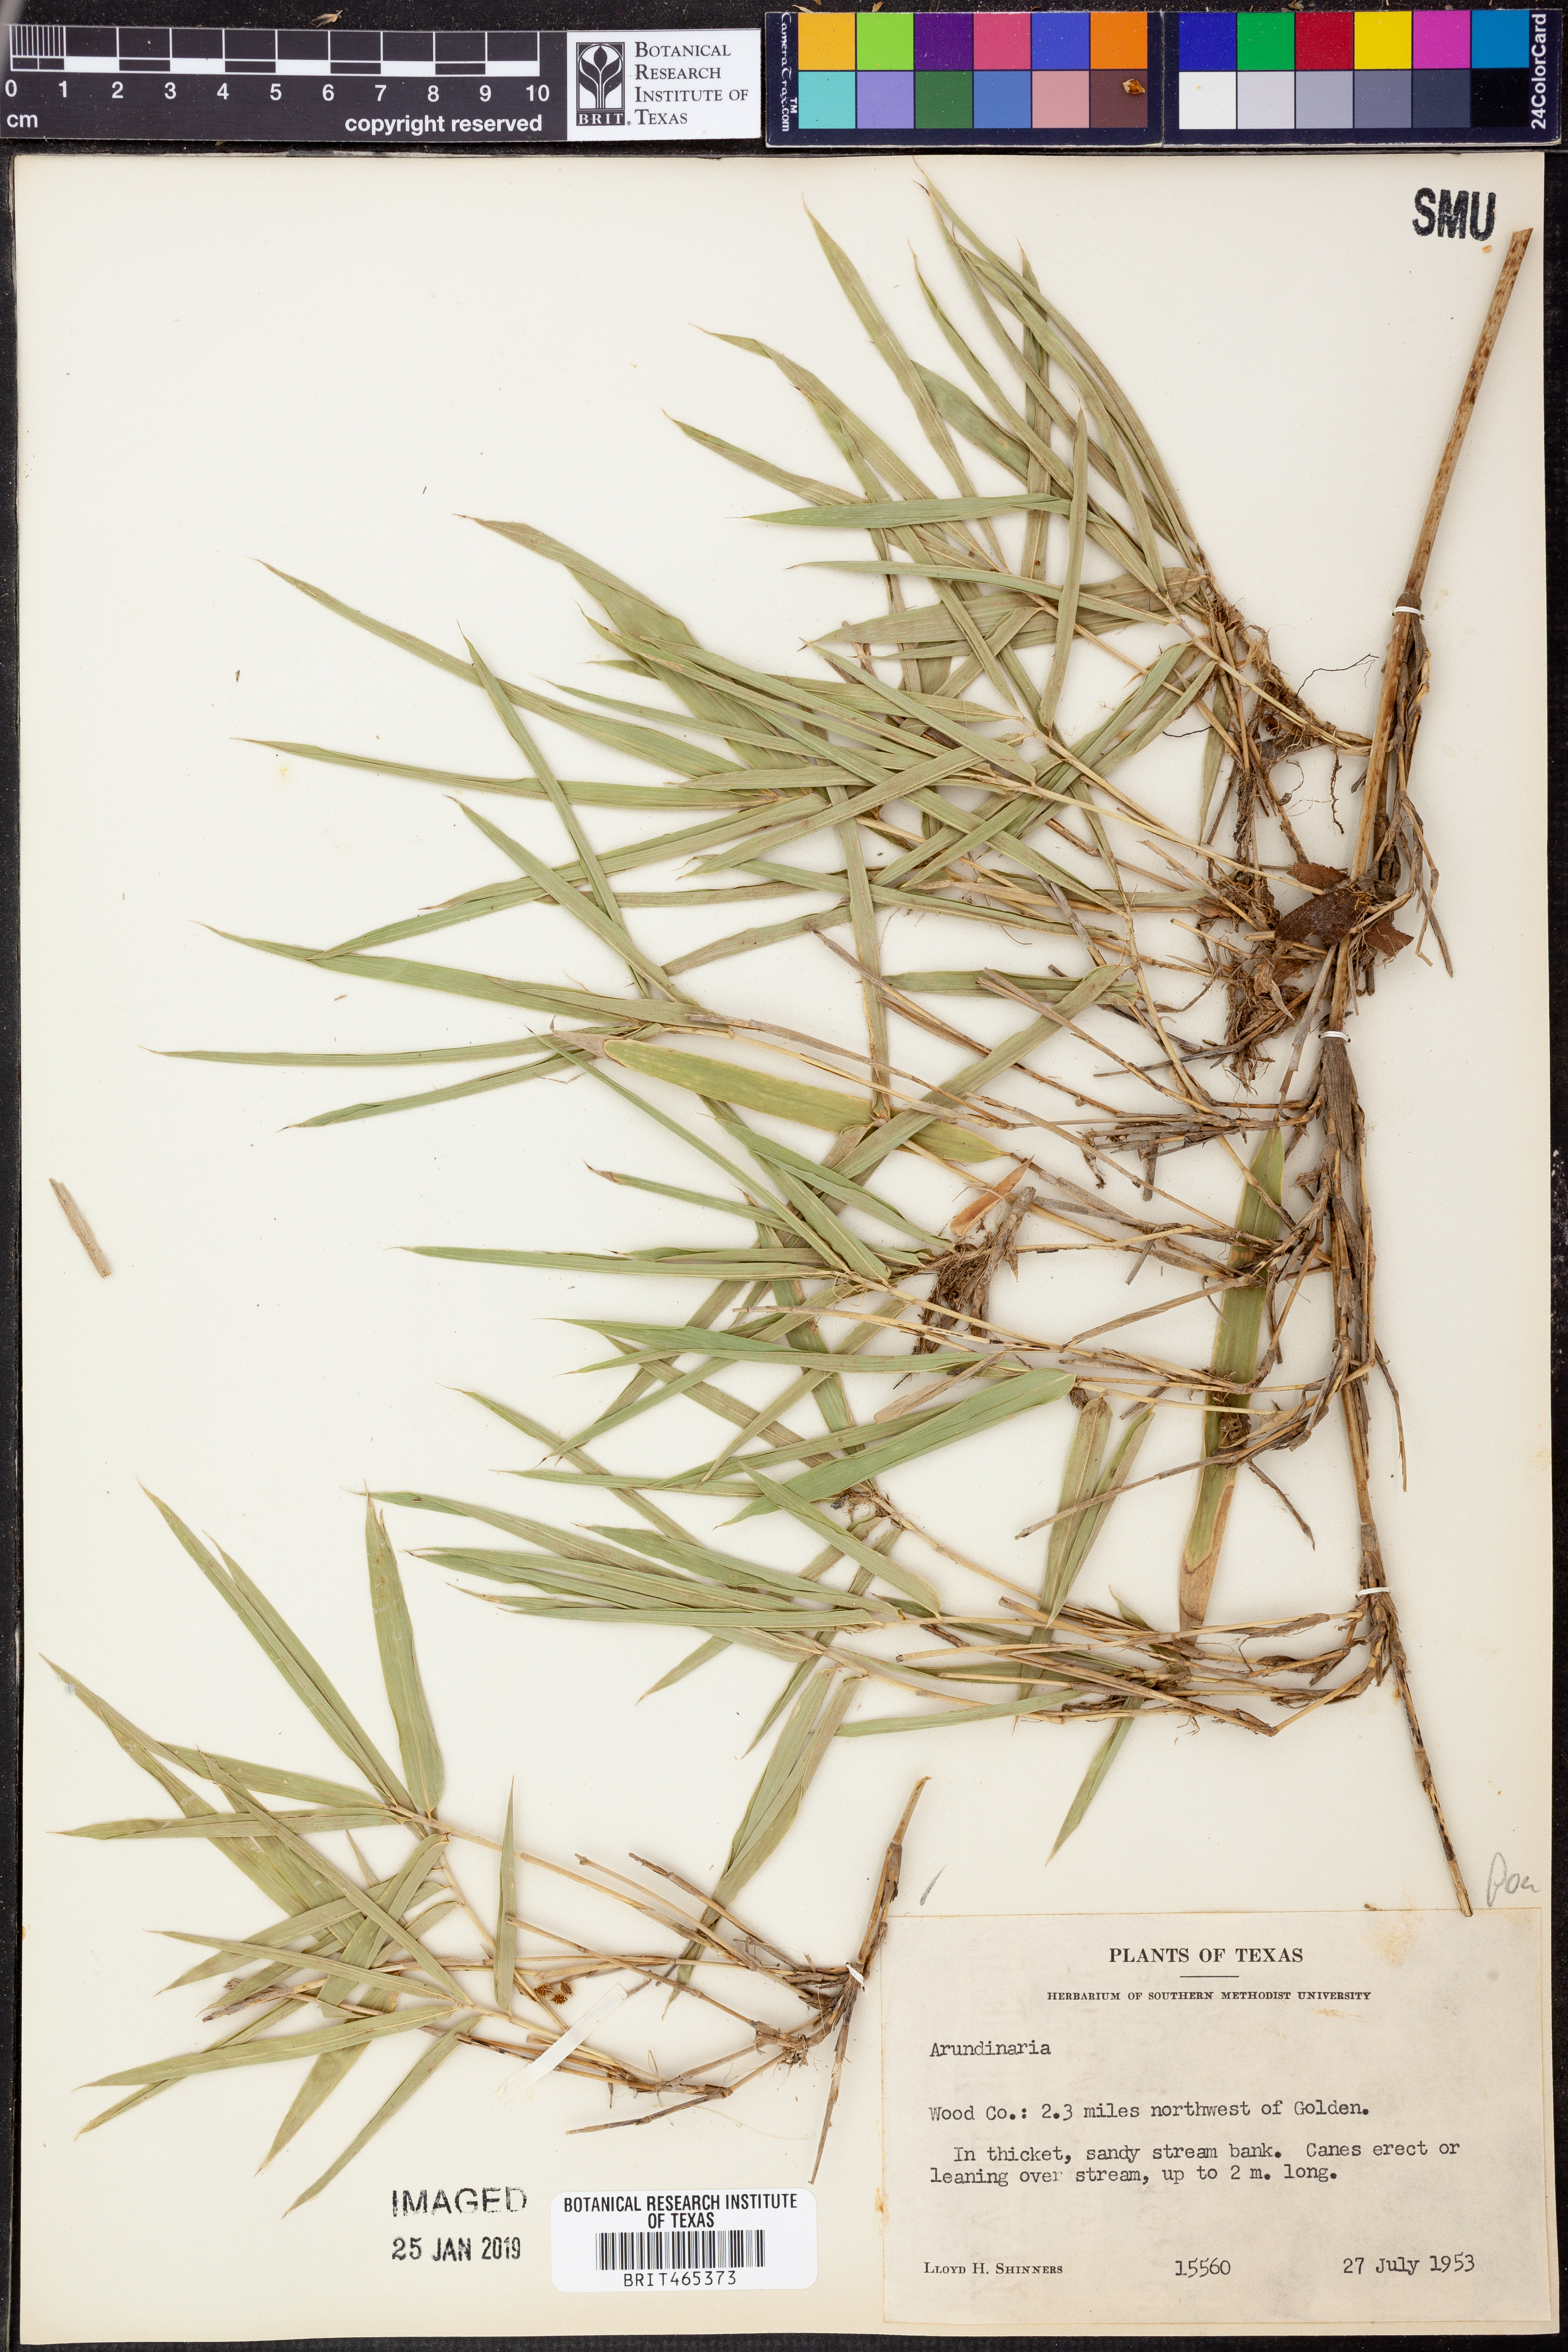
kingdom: Plantae
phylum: Tracheophyta
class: Liliopsida
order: Poales
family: Poaceae
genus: Arundinaria
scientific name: Arundinaria
